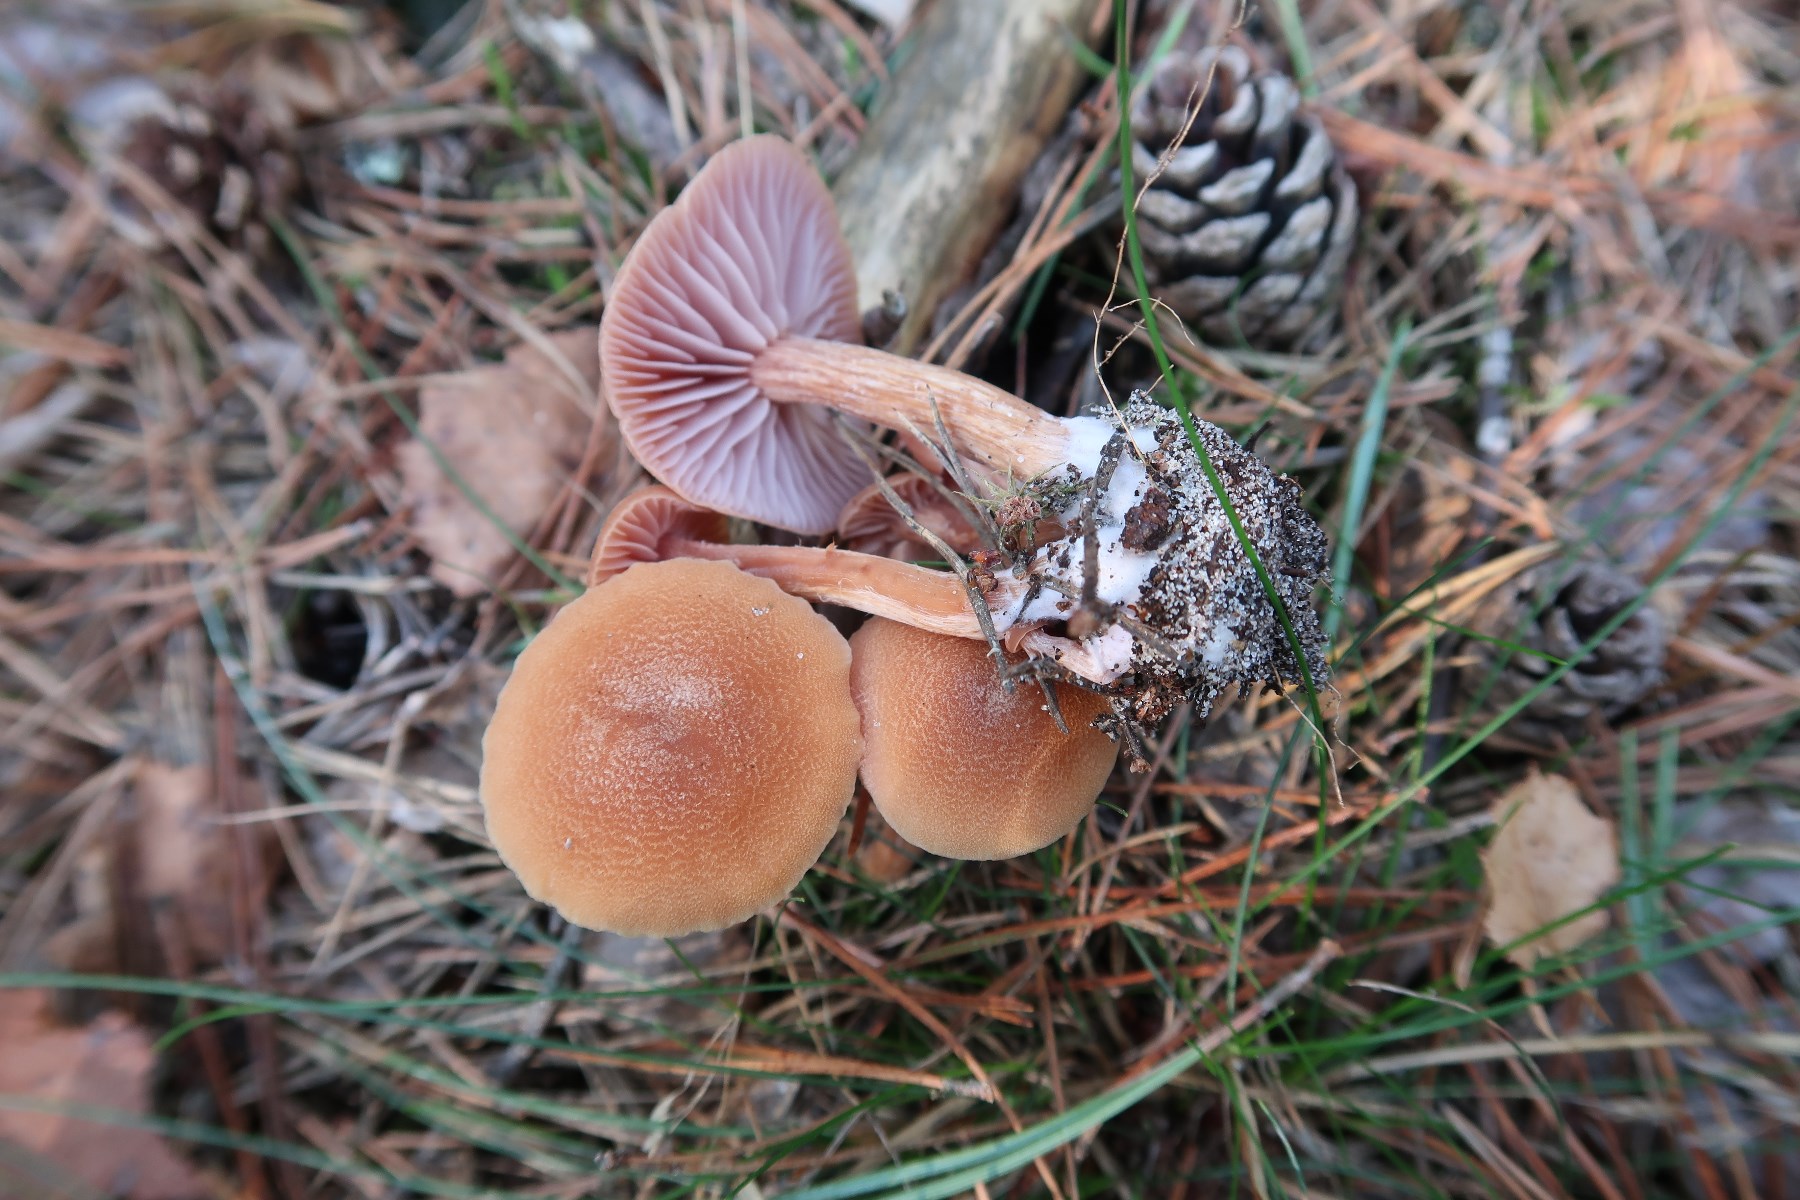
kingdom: Fungi
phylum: Basidiomycota
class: Agaricomycetes
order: Agaricales
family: Hydnangiaceae
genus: Laccaria
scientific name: Laccaria bicolor
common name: tvefarvet ametysthat
